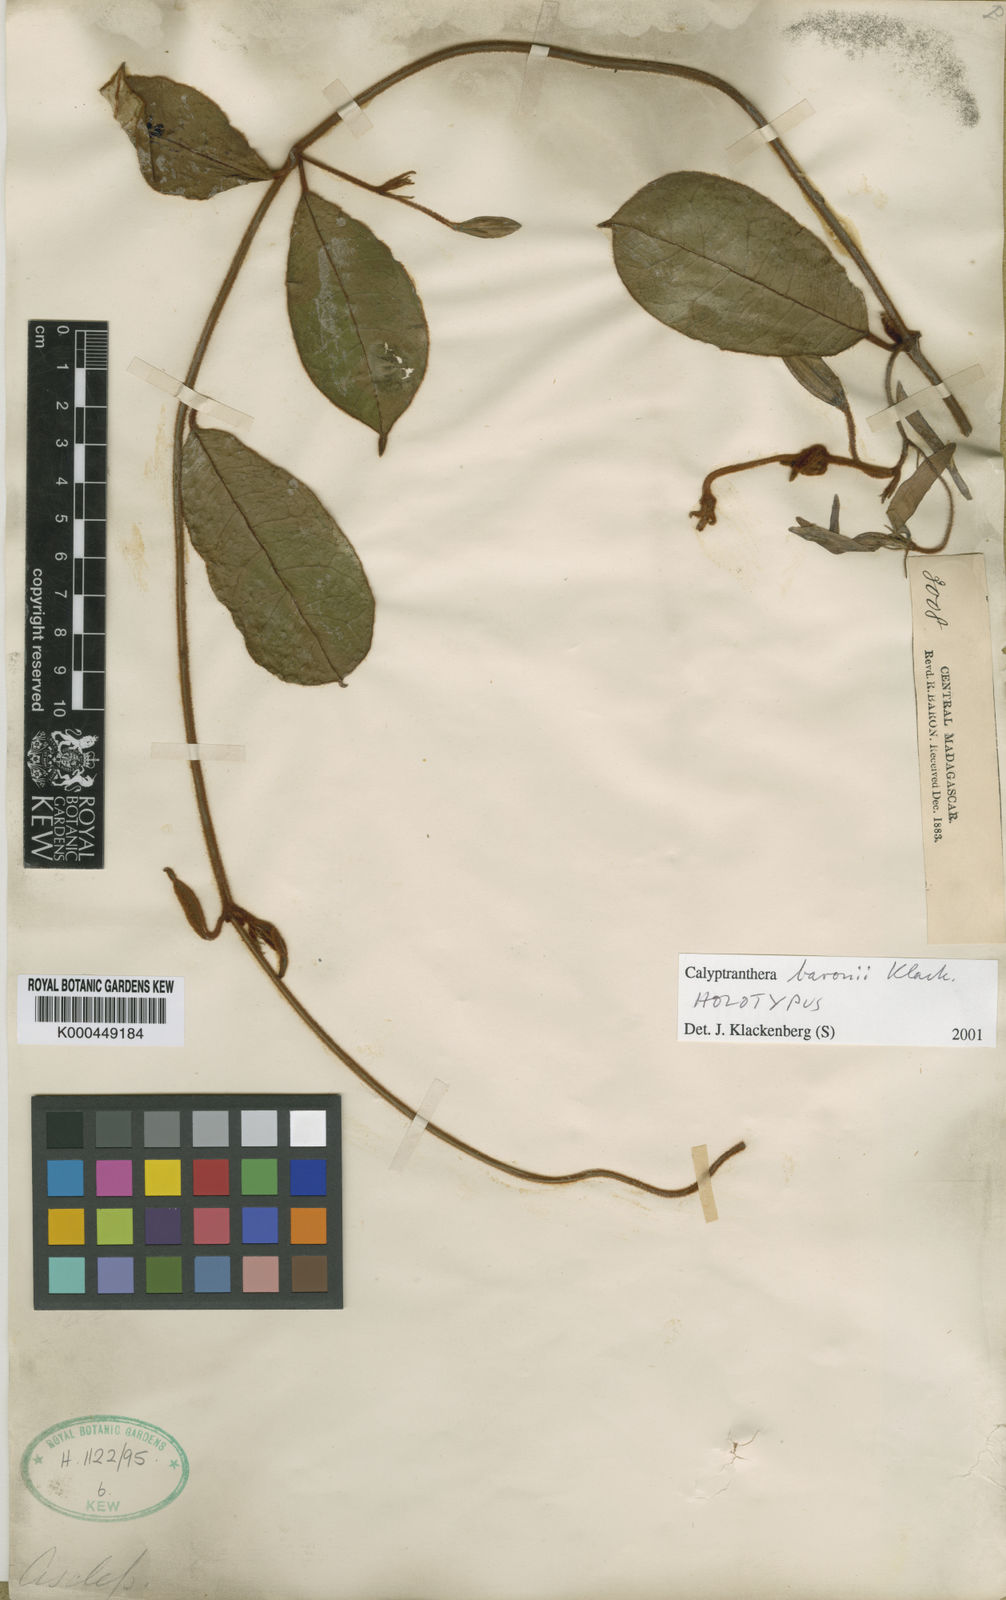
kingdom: Plantae
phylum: Tracheophyta
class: Magnoliopsida
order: Gentianales
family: Apocynaceae
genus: Calyptranthera
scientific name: Calyptranthera baronii
